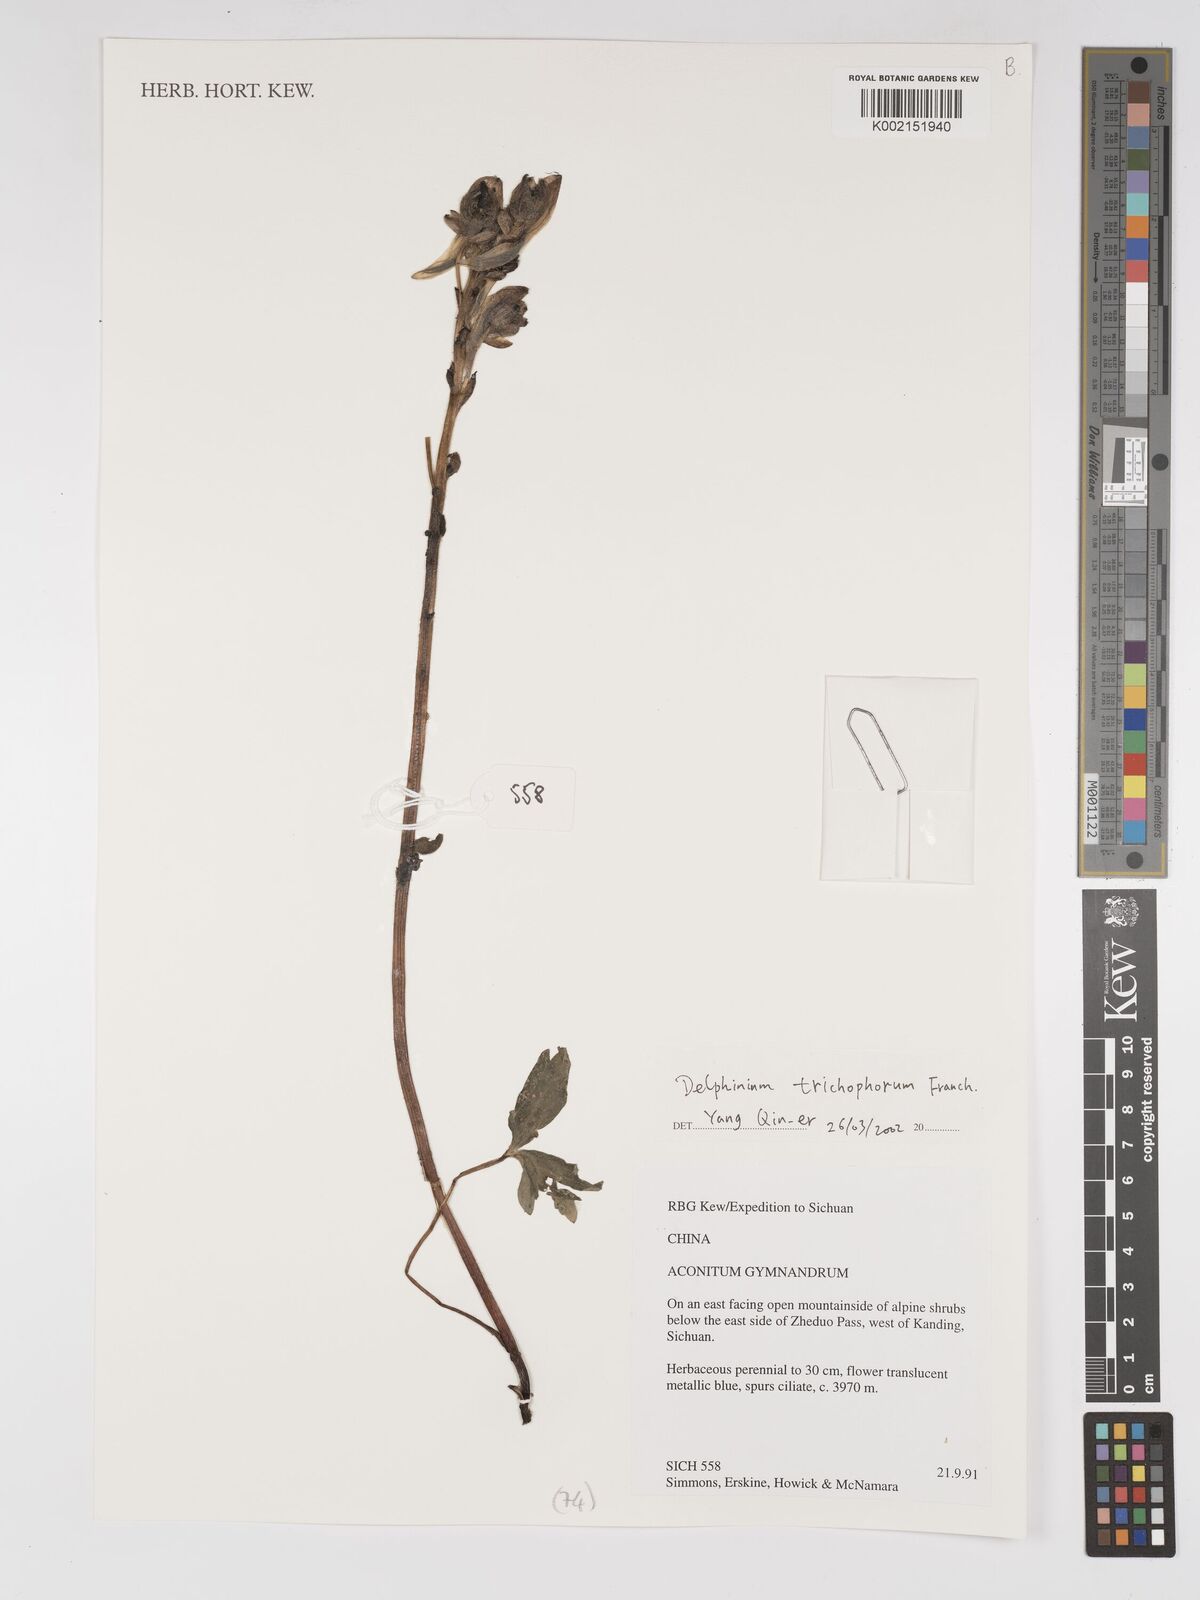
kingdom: Plantae
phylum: Tracheophyta
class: Magnoliopsida
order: Ranunculales
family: Ranunculaceae
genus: Delphinium
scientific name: Delphinium trichophorum
